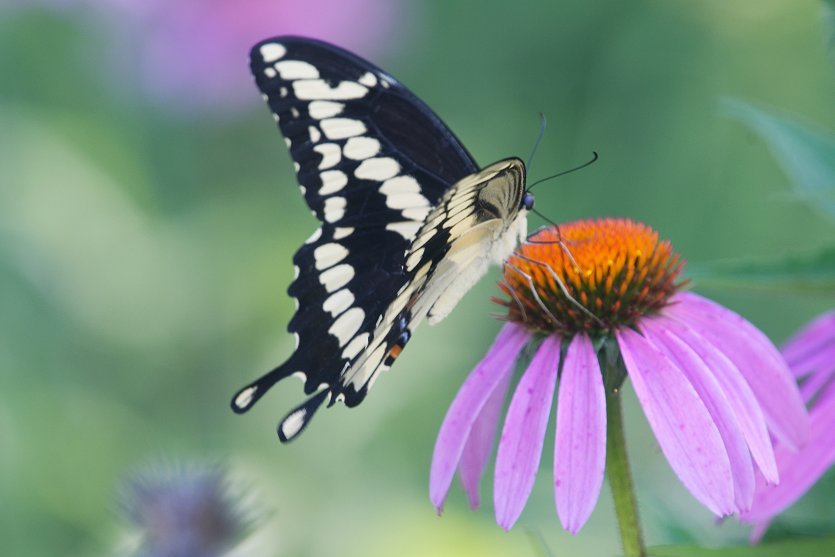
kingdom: Animalia
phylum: Arthropoda
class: Insecta
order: Lepidoptera
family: Papilionidae
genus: Papilio
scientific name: Papilio cresphontes
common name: Eastern Giant Swallowtail
